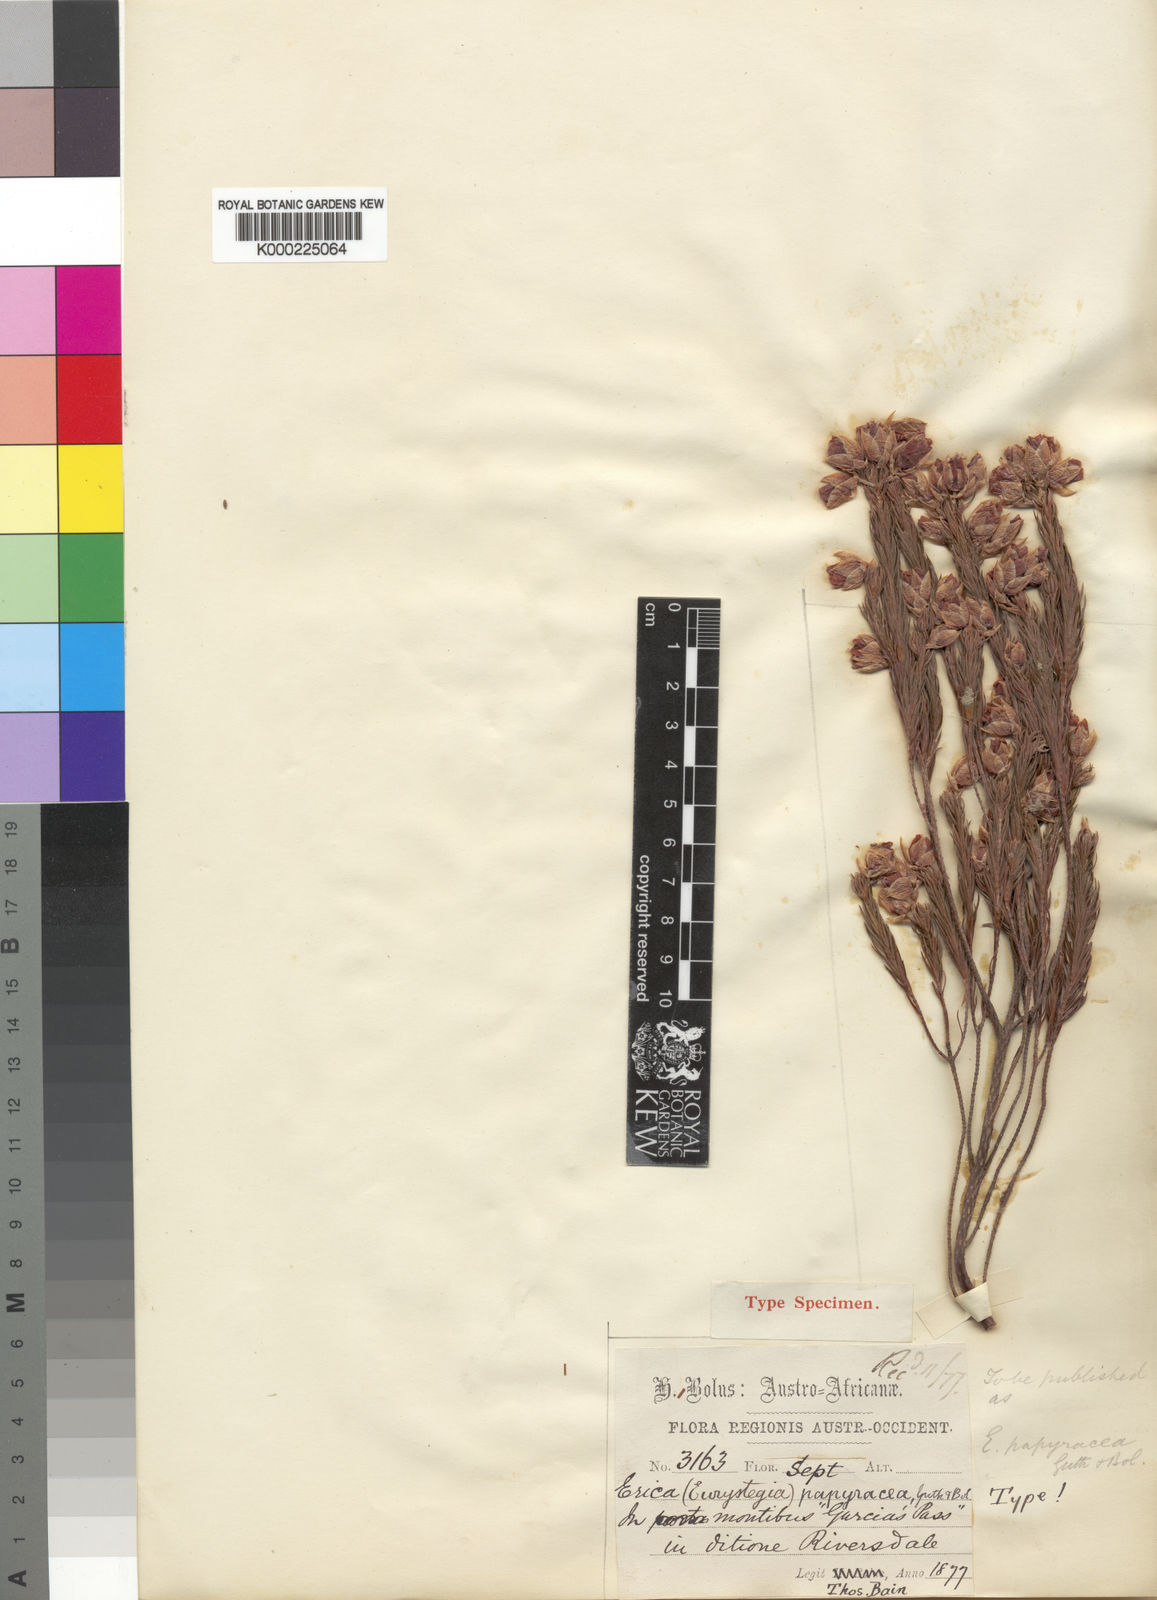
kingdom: Plantae
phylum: Tracheophyta
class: Magnoliopsida
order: Ericales
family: Ericaceae
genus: Erica
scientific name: Erica
